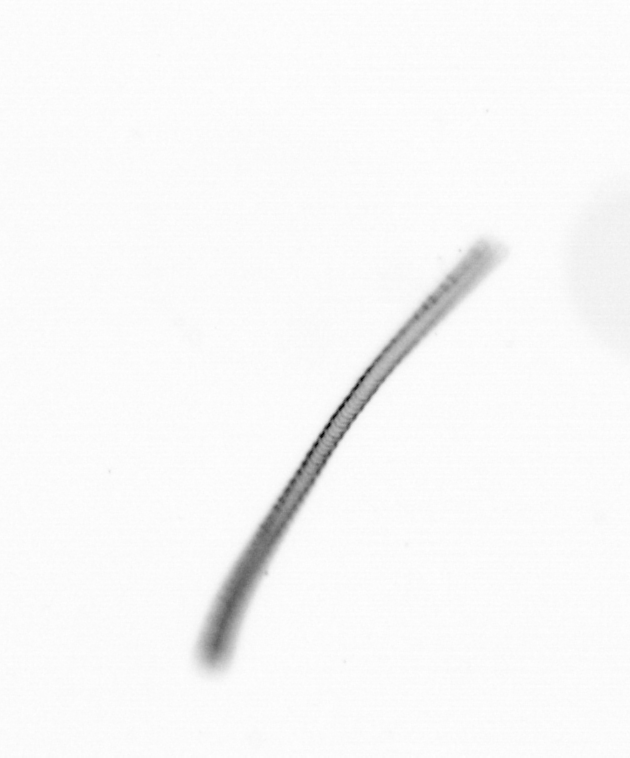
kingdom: Chromista
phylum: Ochrophyta
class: Bacillariophyceae
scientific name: Bacillariophyceae
